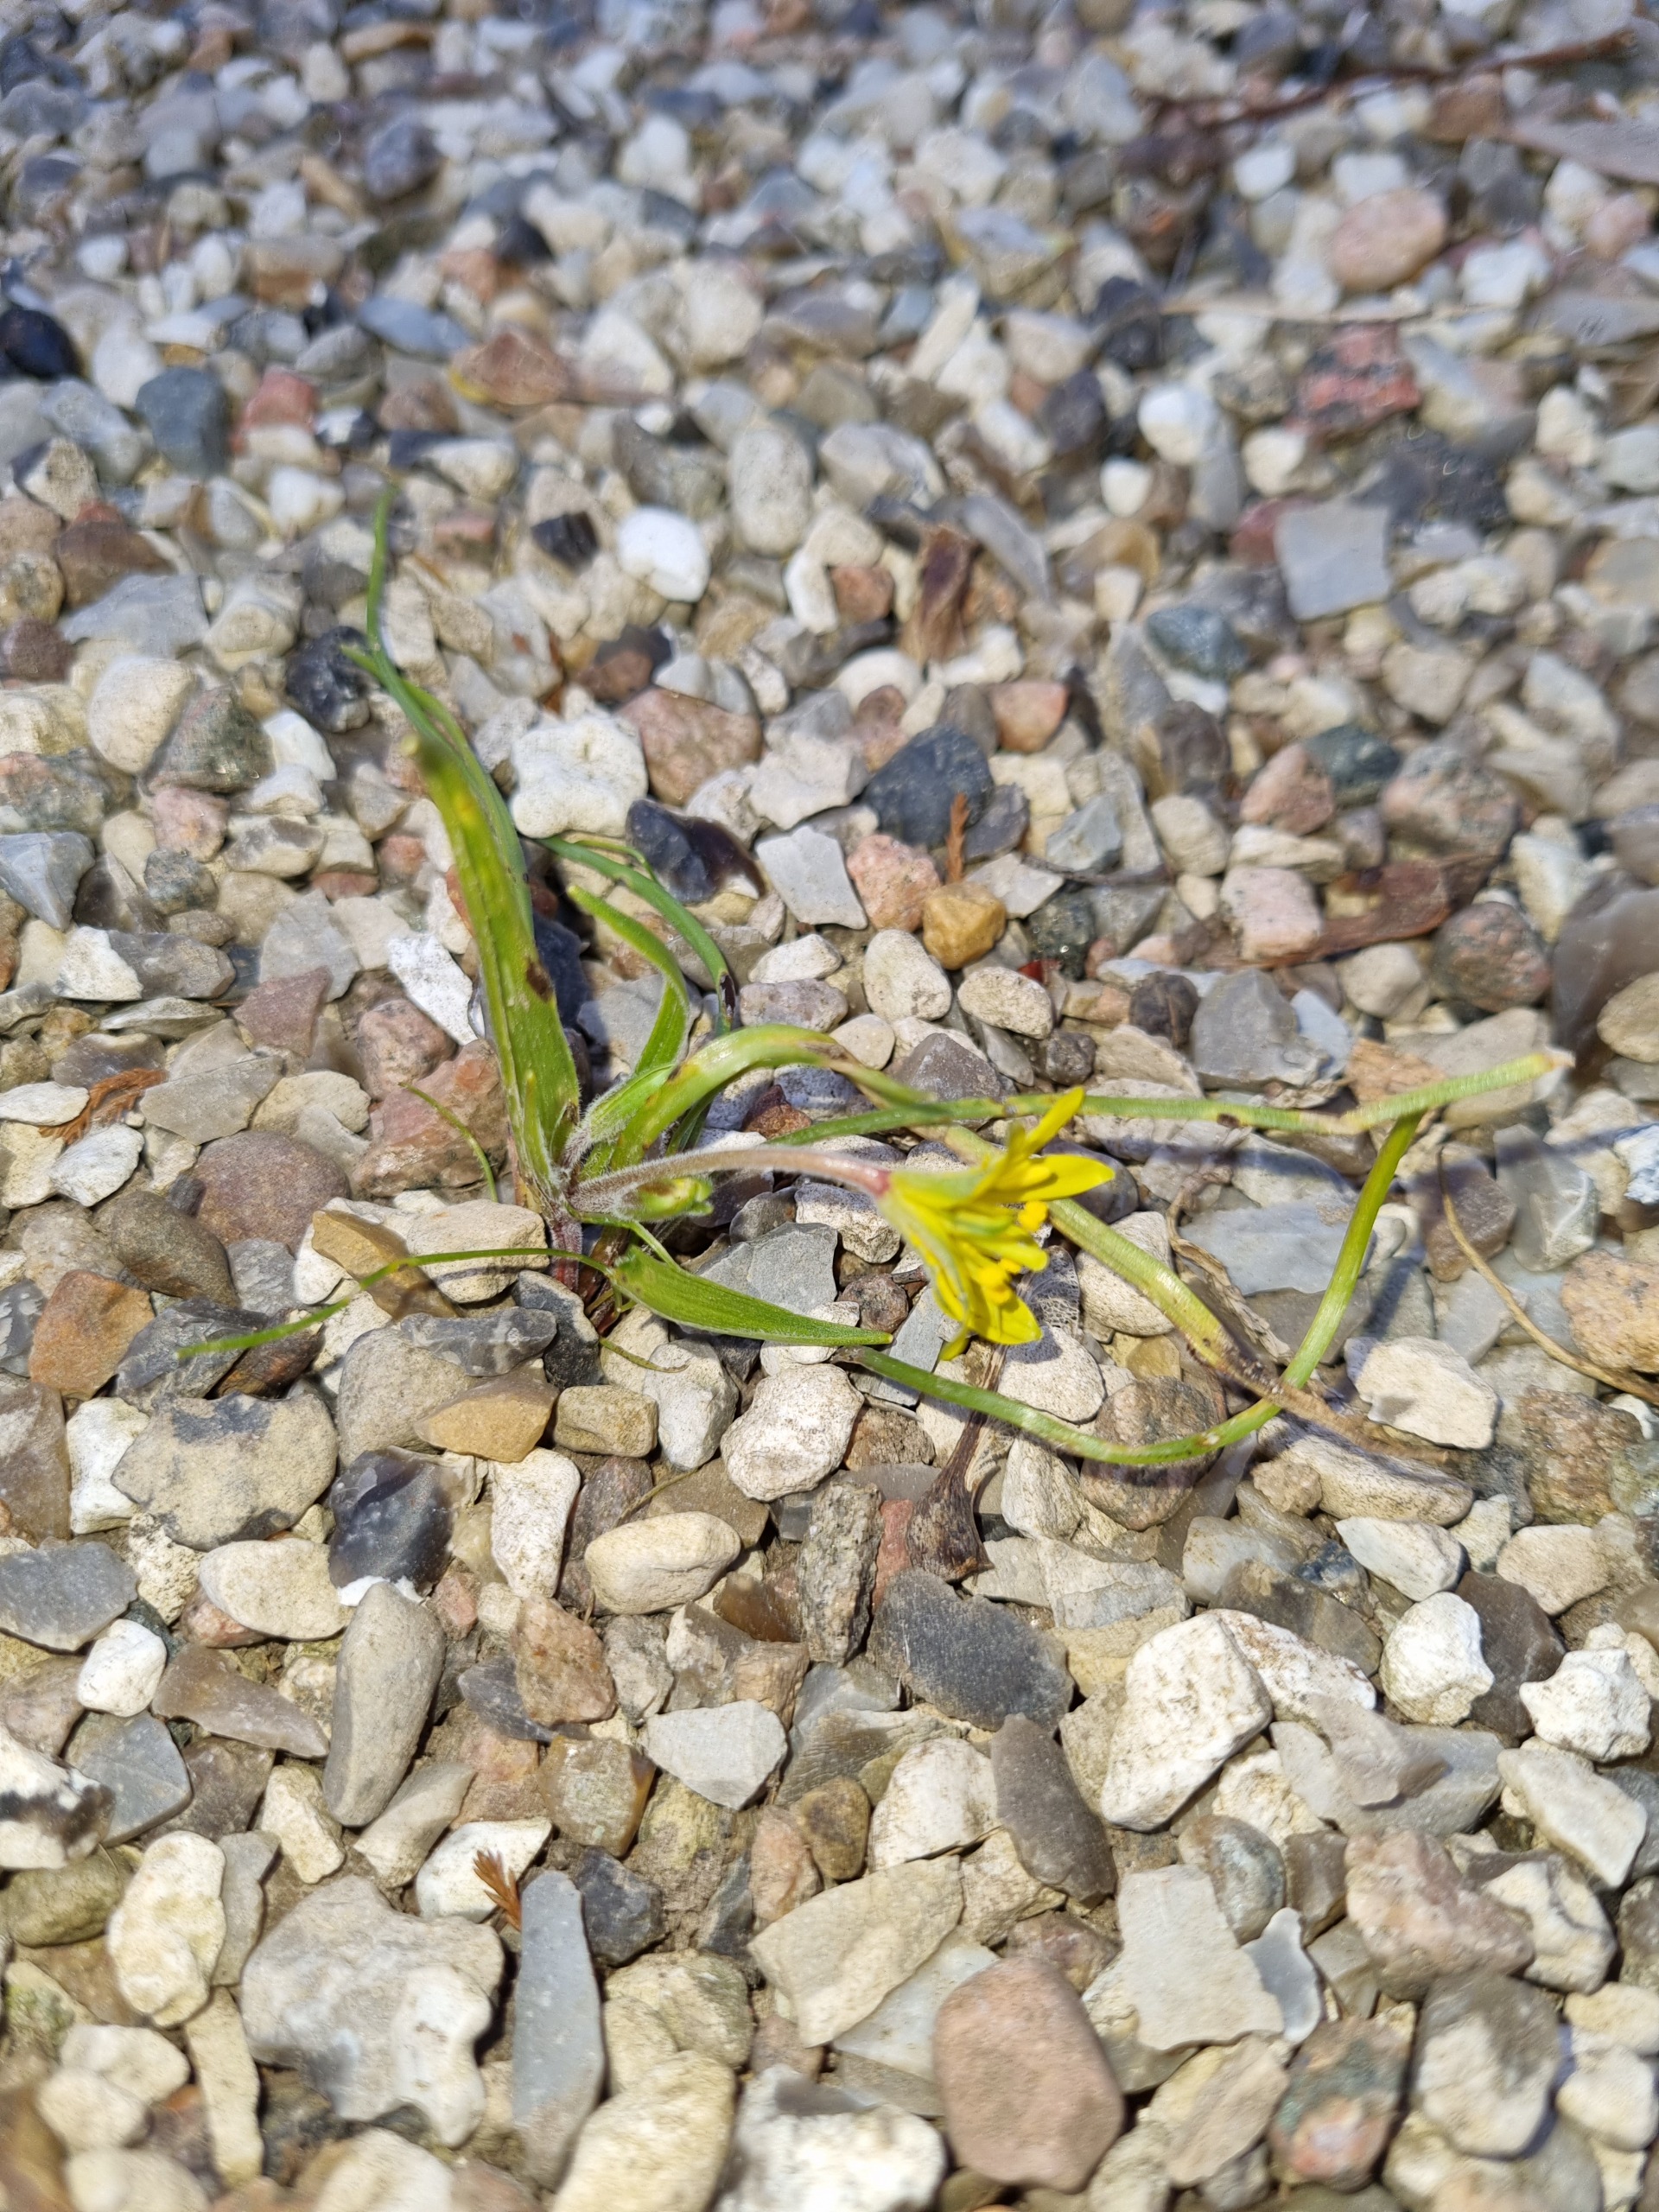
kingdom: Plantae
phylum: Tracheophyta
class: Liliopsida
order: Liliales
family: Liliaceae
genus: Gagea
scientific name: Gagea villosa
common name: Ager-guldstjerne
